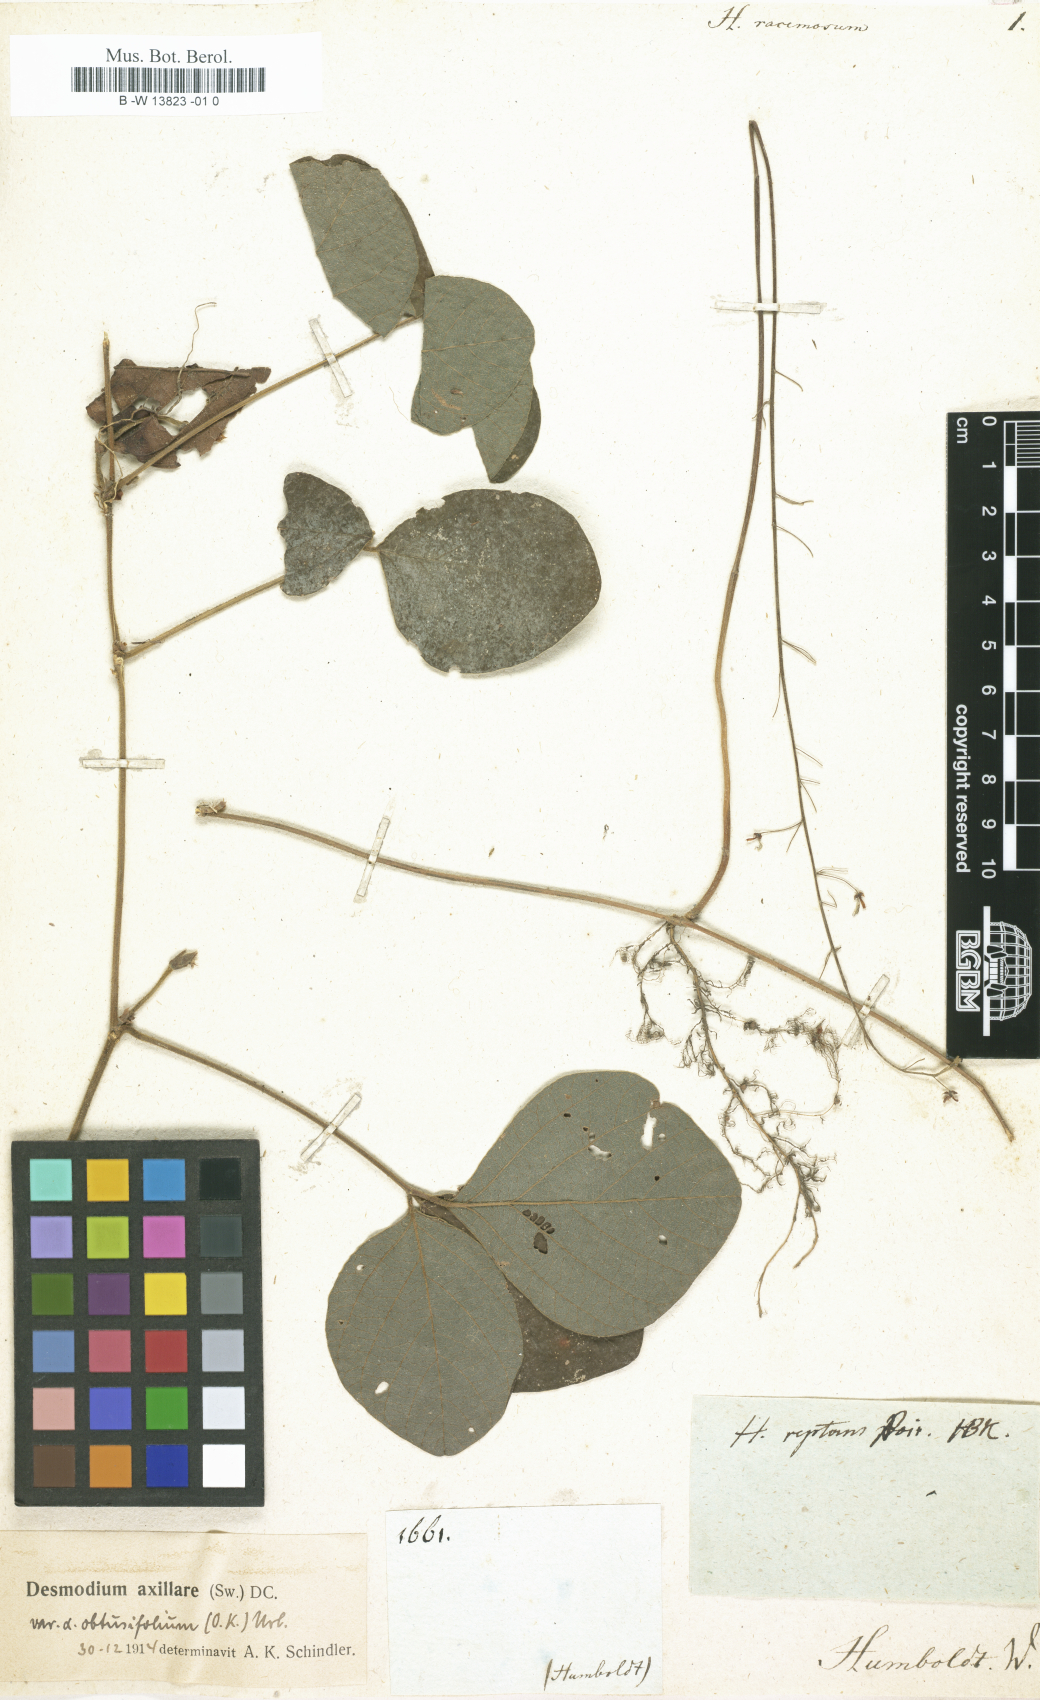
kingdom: Plantae
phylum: Tracheophyta
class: Magnoliopsida
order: Fabales
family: Fabaceae
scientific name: Fabaceae
